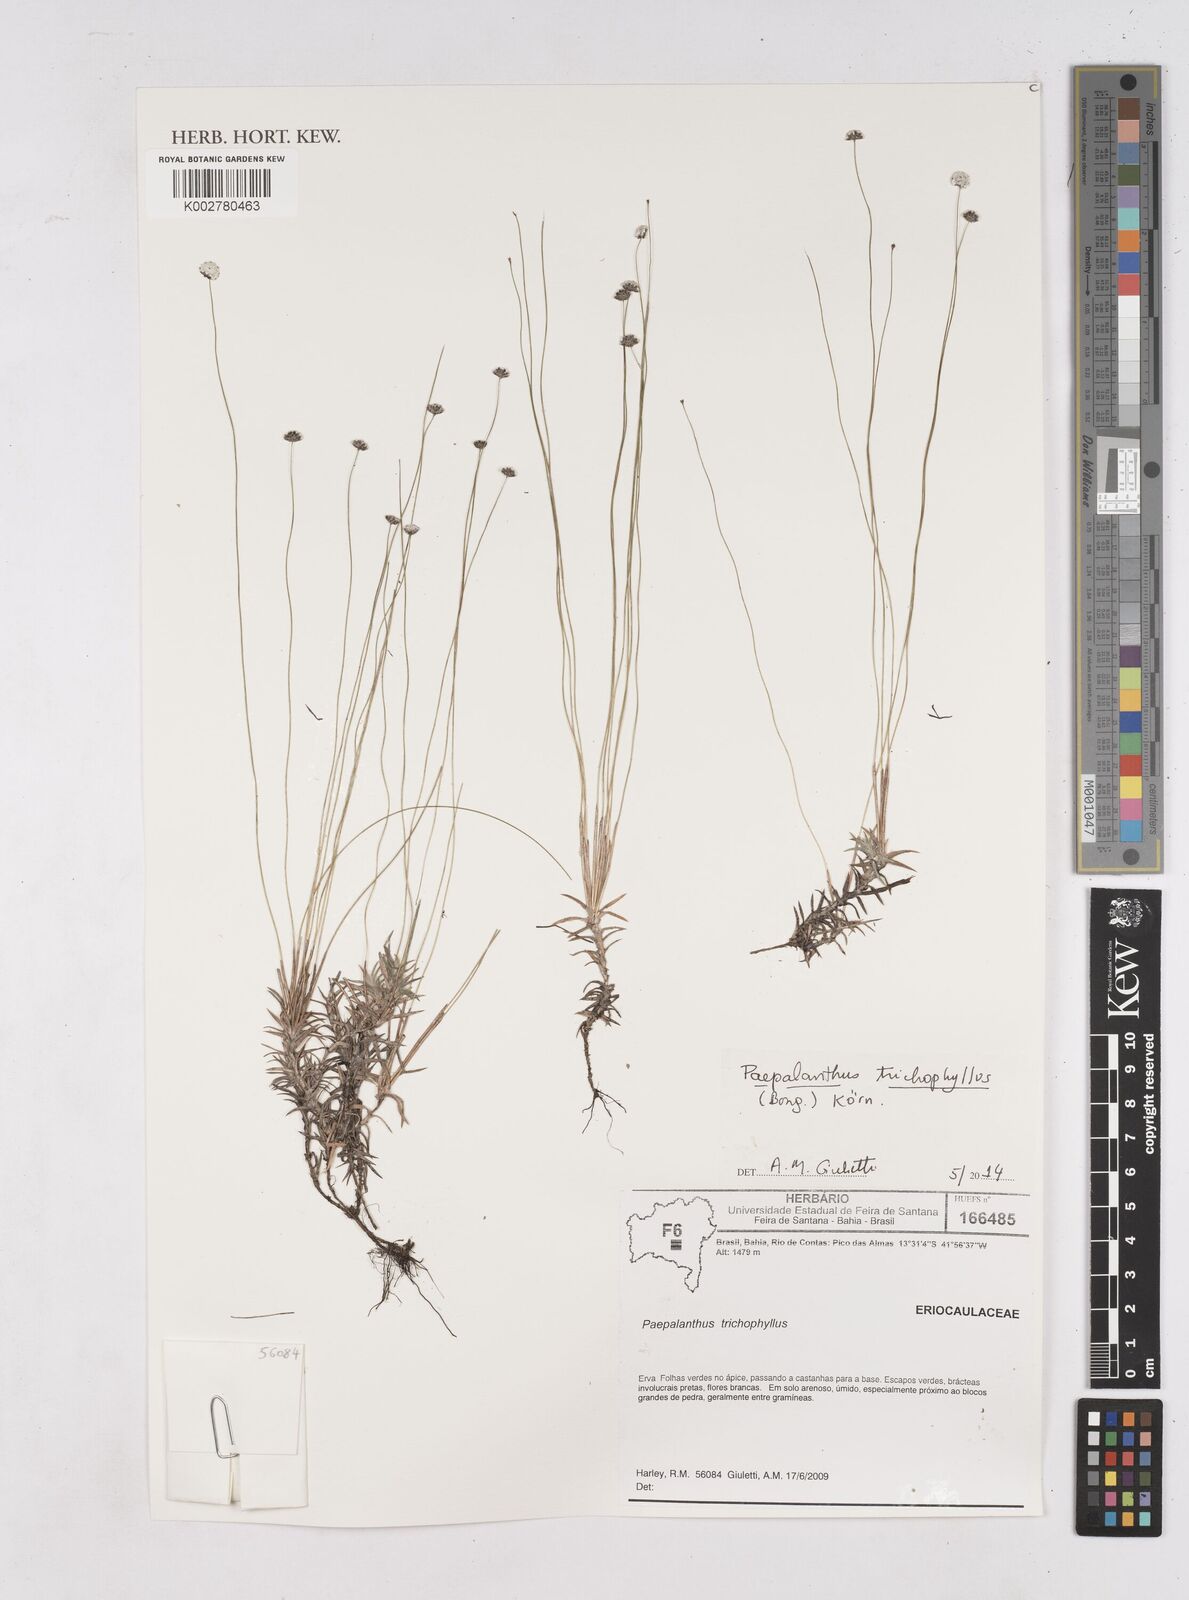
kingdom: Plantae
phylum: Tracheophyta
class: Liliopsida
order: Poales
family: Eriocaulaceae
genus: Paepalanthus
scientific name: Paepalanthus trichophyllus
